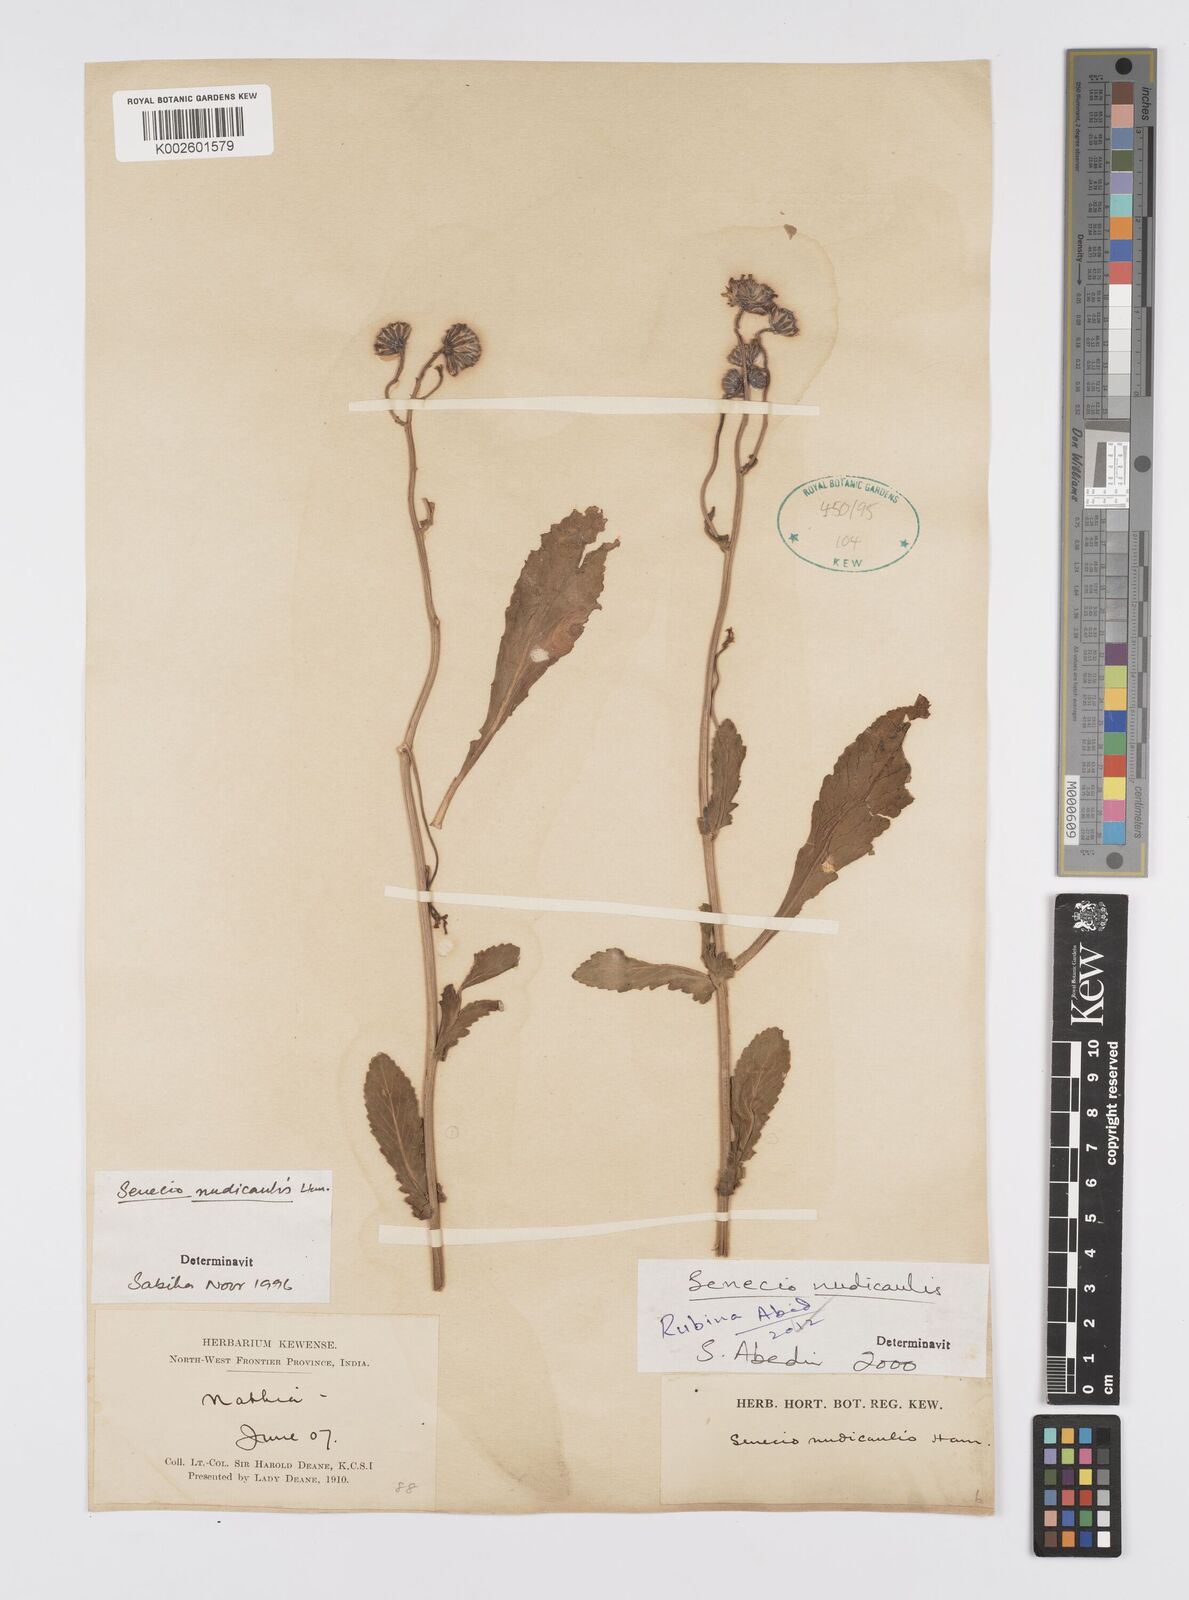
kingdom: Plantae
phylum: Tracheophyta
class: Magnoliopsida
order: Asterales
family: Asteraceae
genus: Jacobaea
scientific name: Jacobaea nudicaulis
